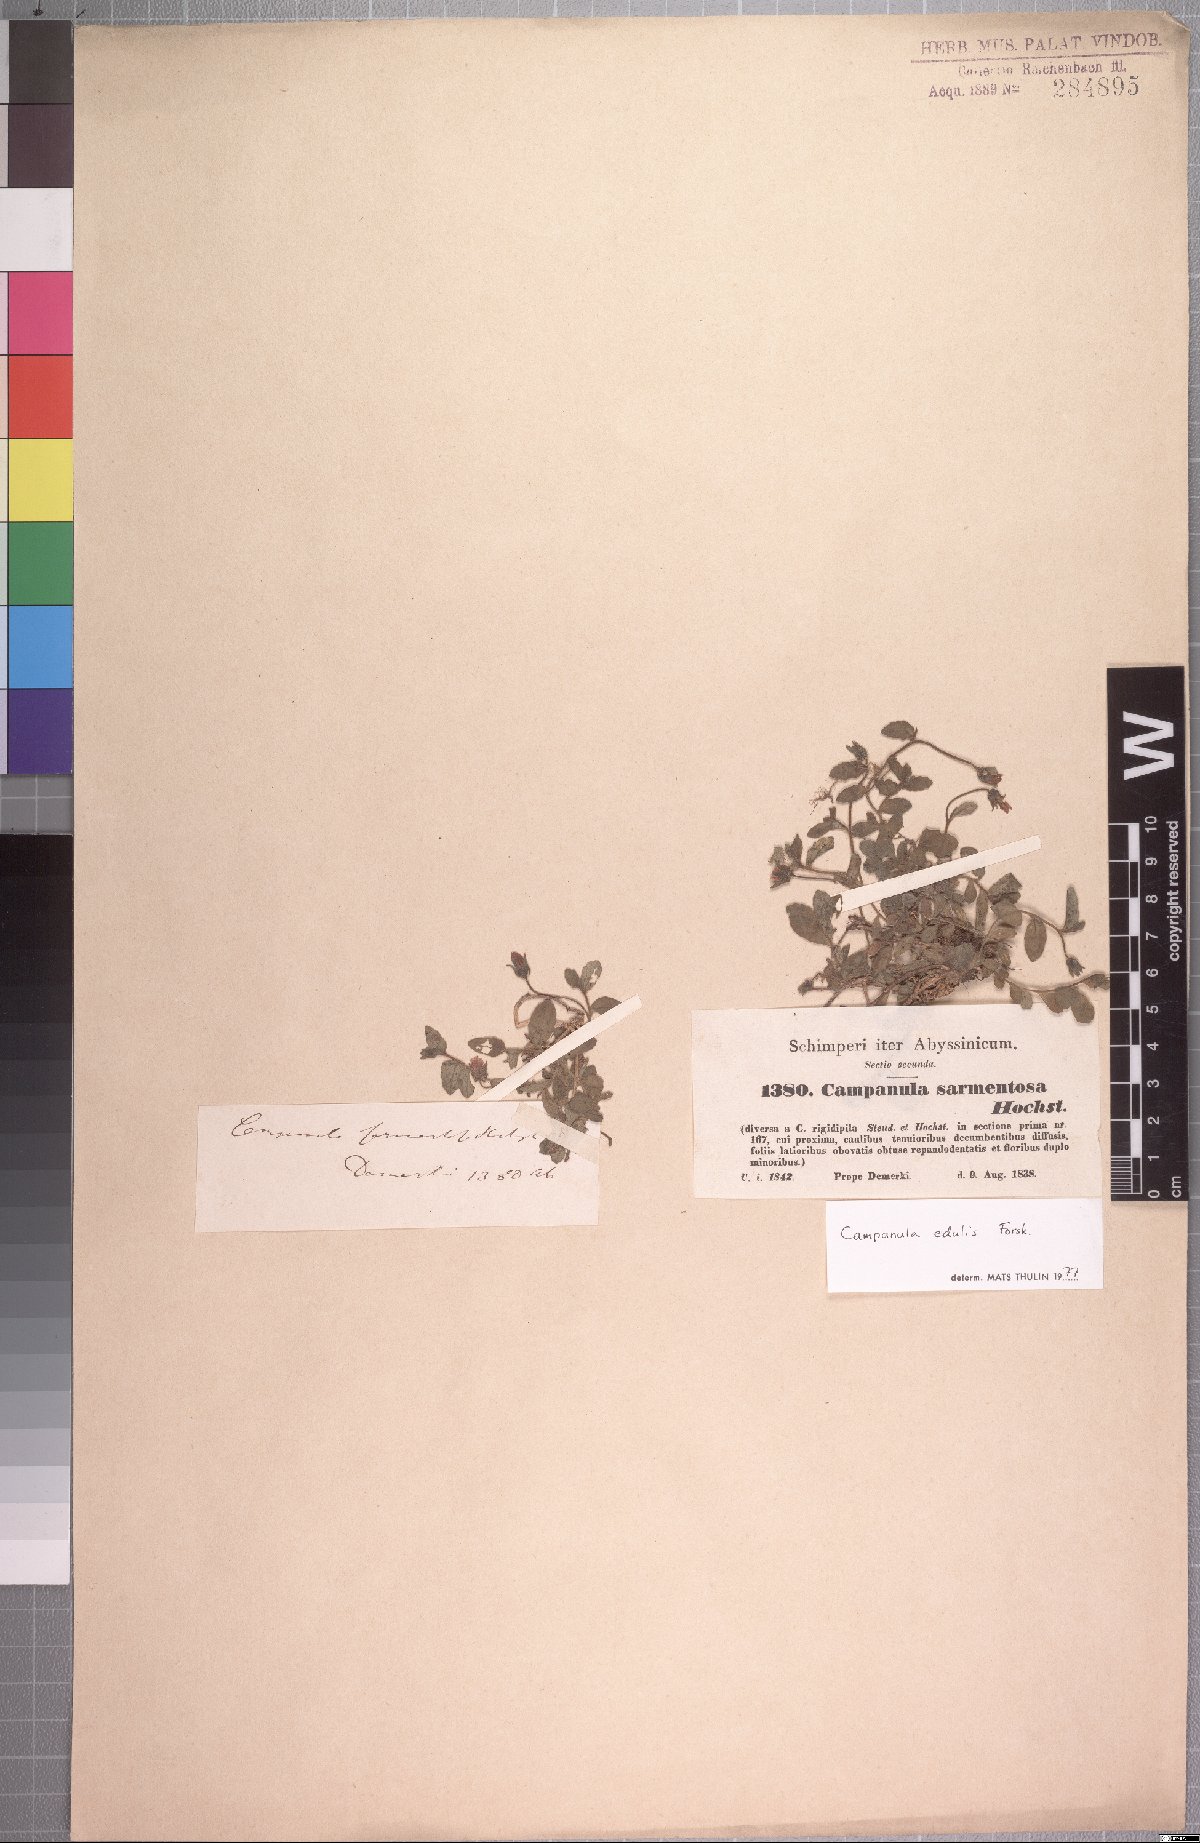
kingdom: Plantae
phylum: Tracheophyta
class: Magnoliopsida
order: Asterales
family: Campanulaceae
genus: Campanula
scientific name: Campanula edulis
